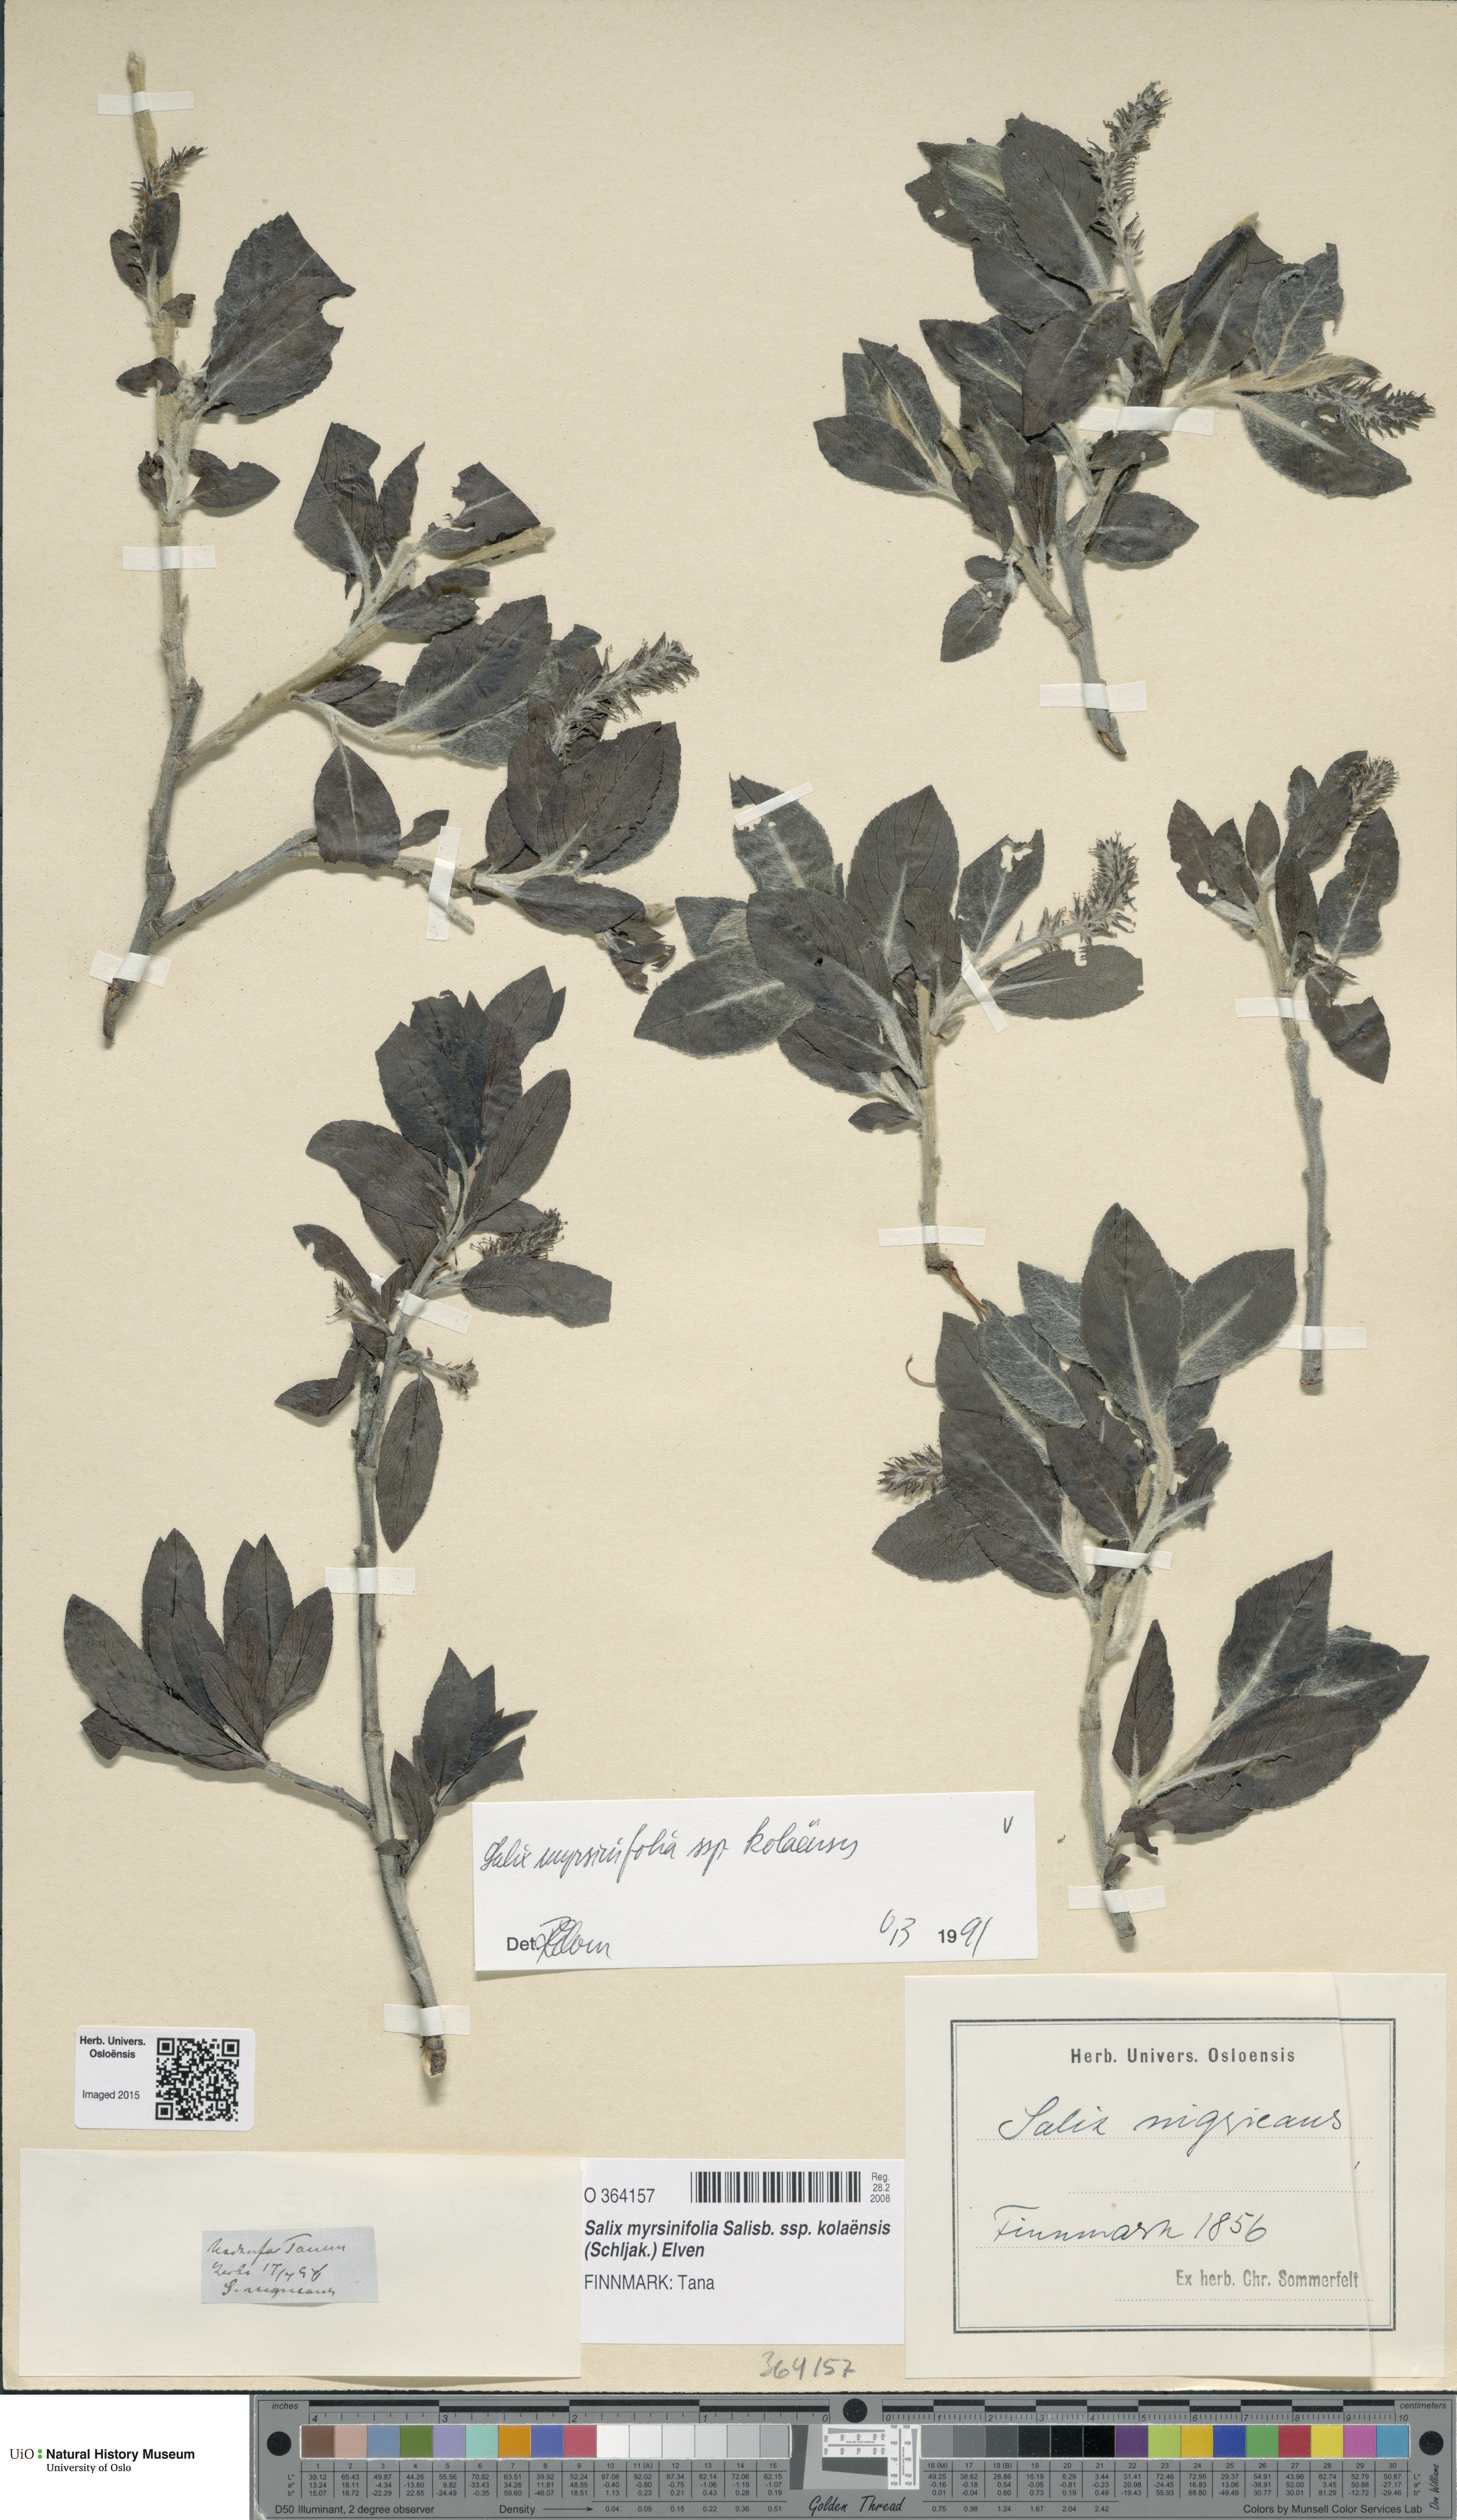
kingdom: Plantae
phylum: Tracheophyta
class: Magnoliopsida
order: Malpighiales
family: Salicaceae
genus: Salix
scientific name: Salix myrsinifolia
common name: Dark-leaved willow
